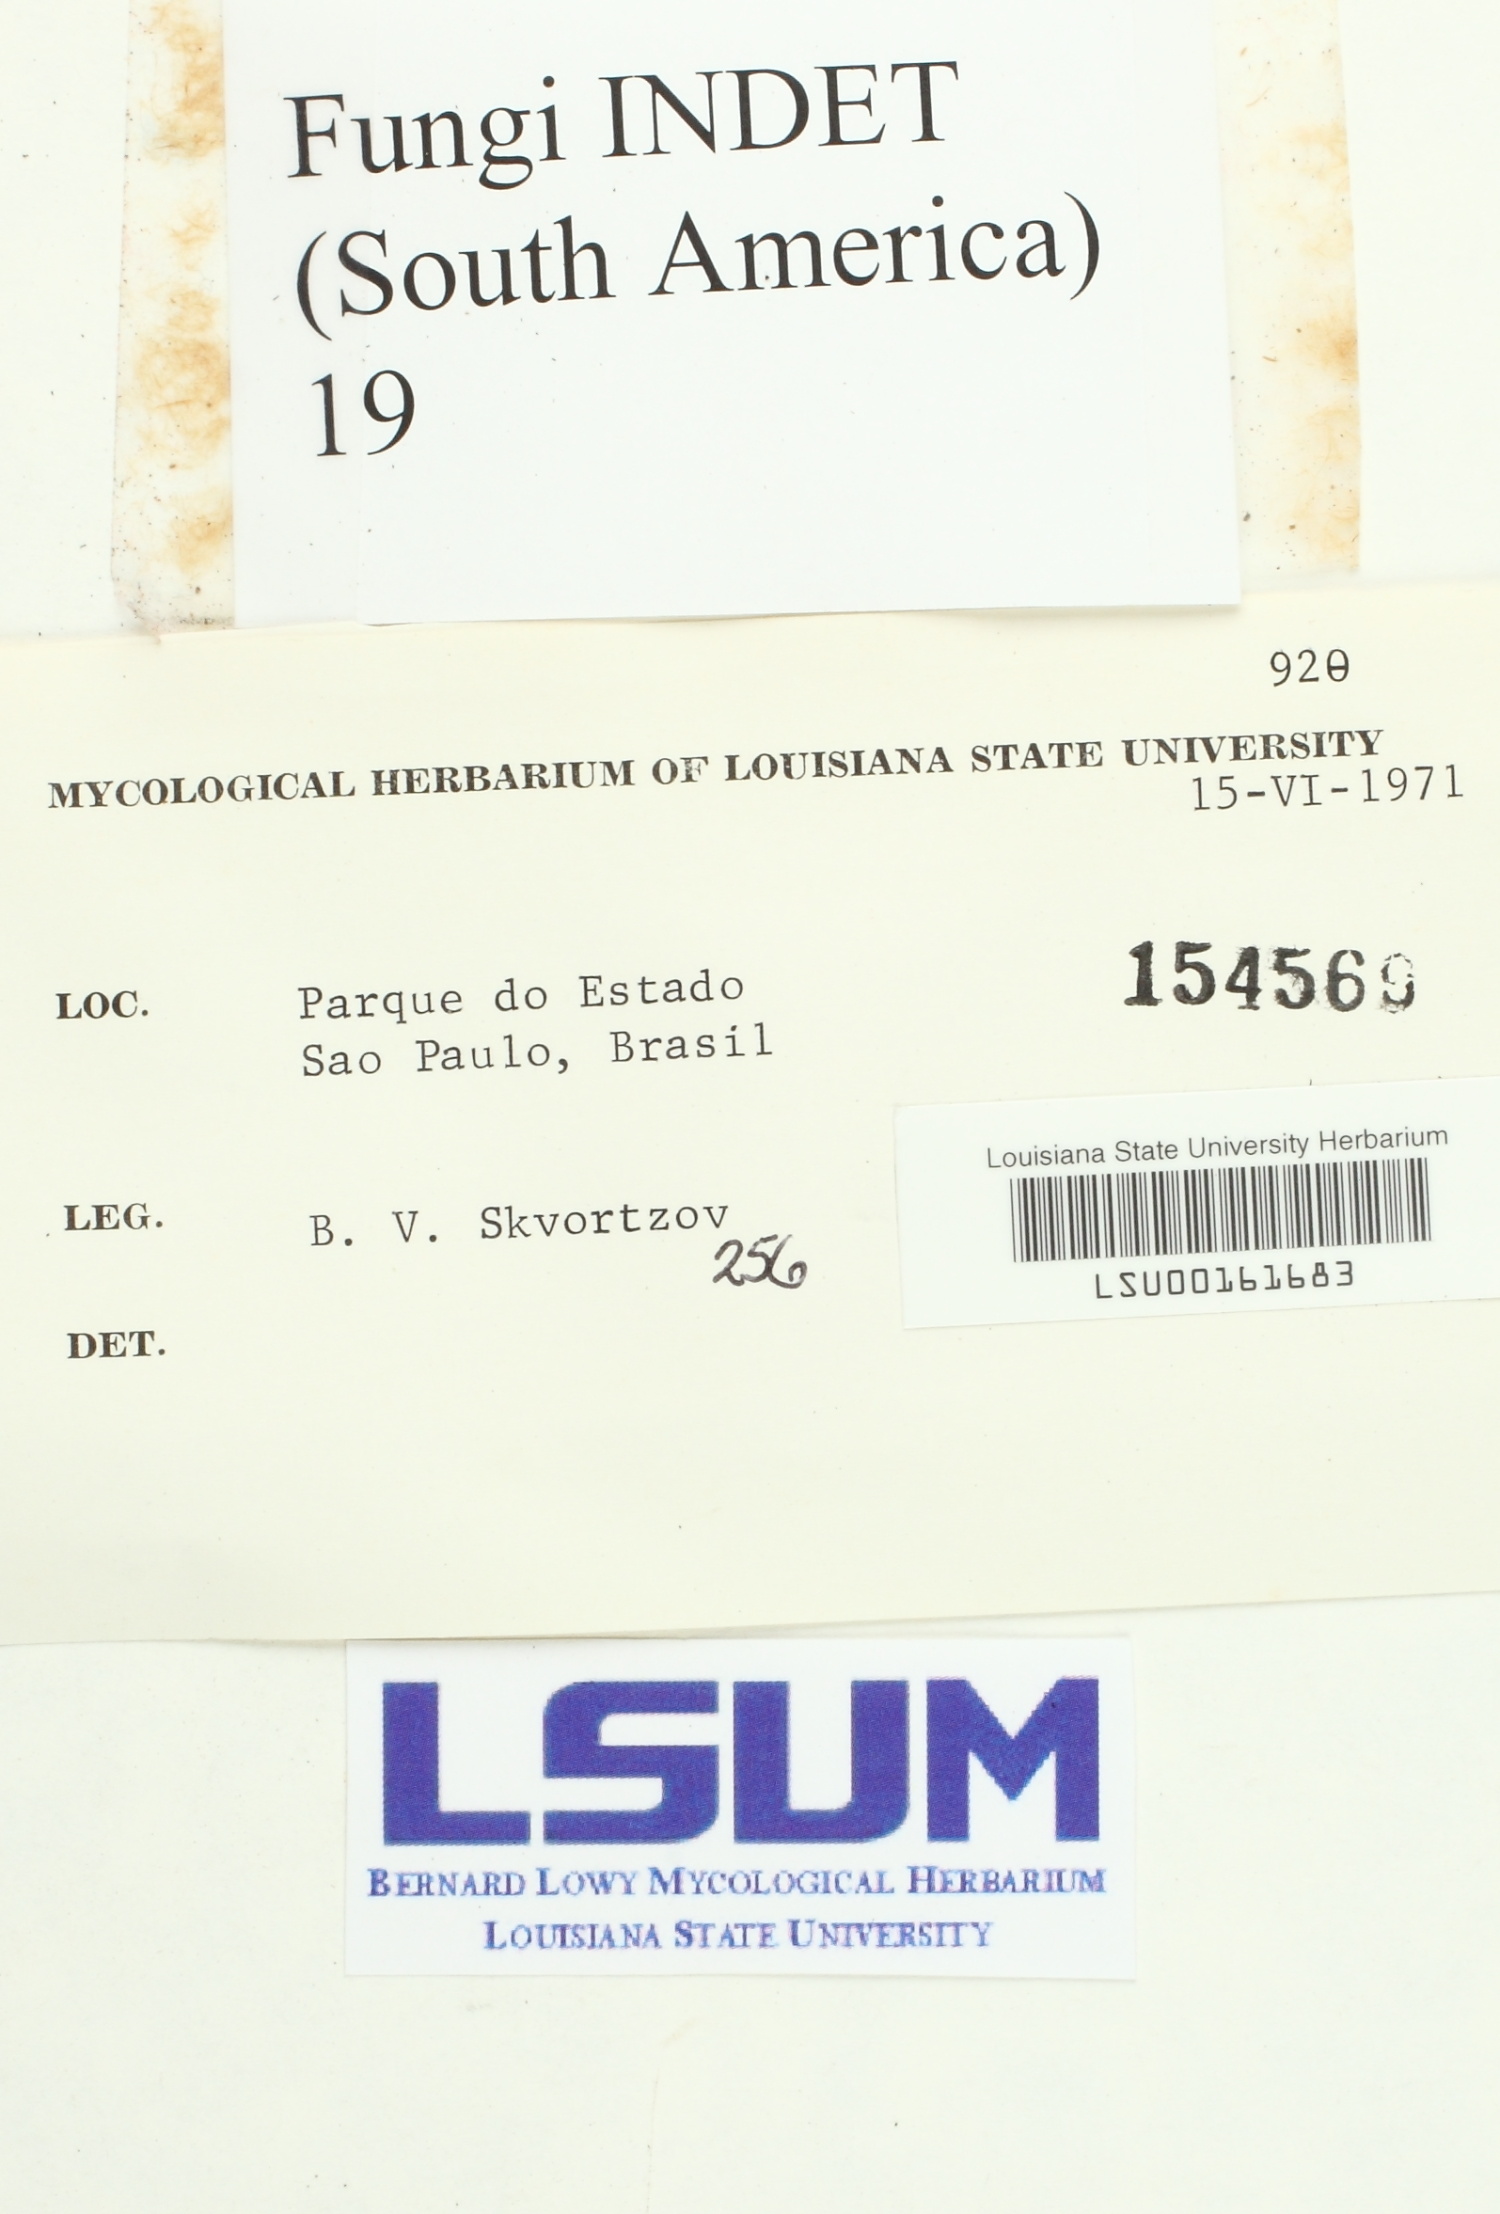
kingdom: Fungi
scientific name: Fungi
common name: Fungi
